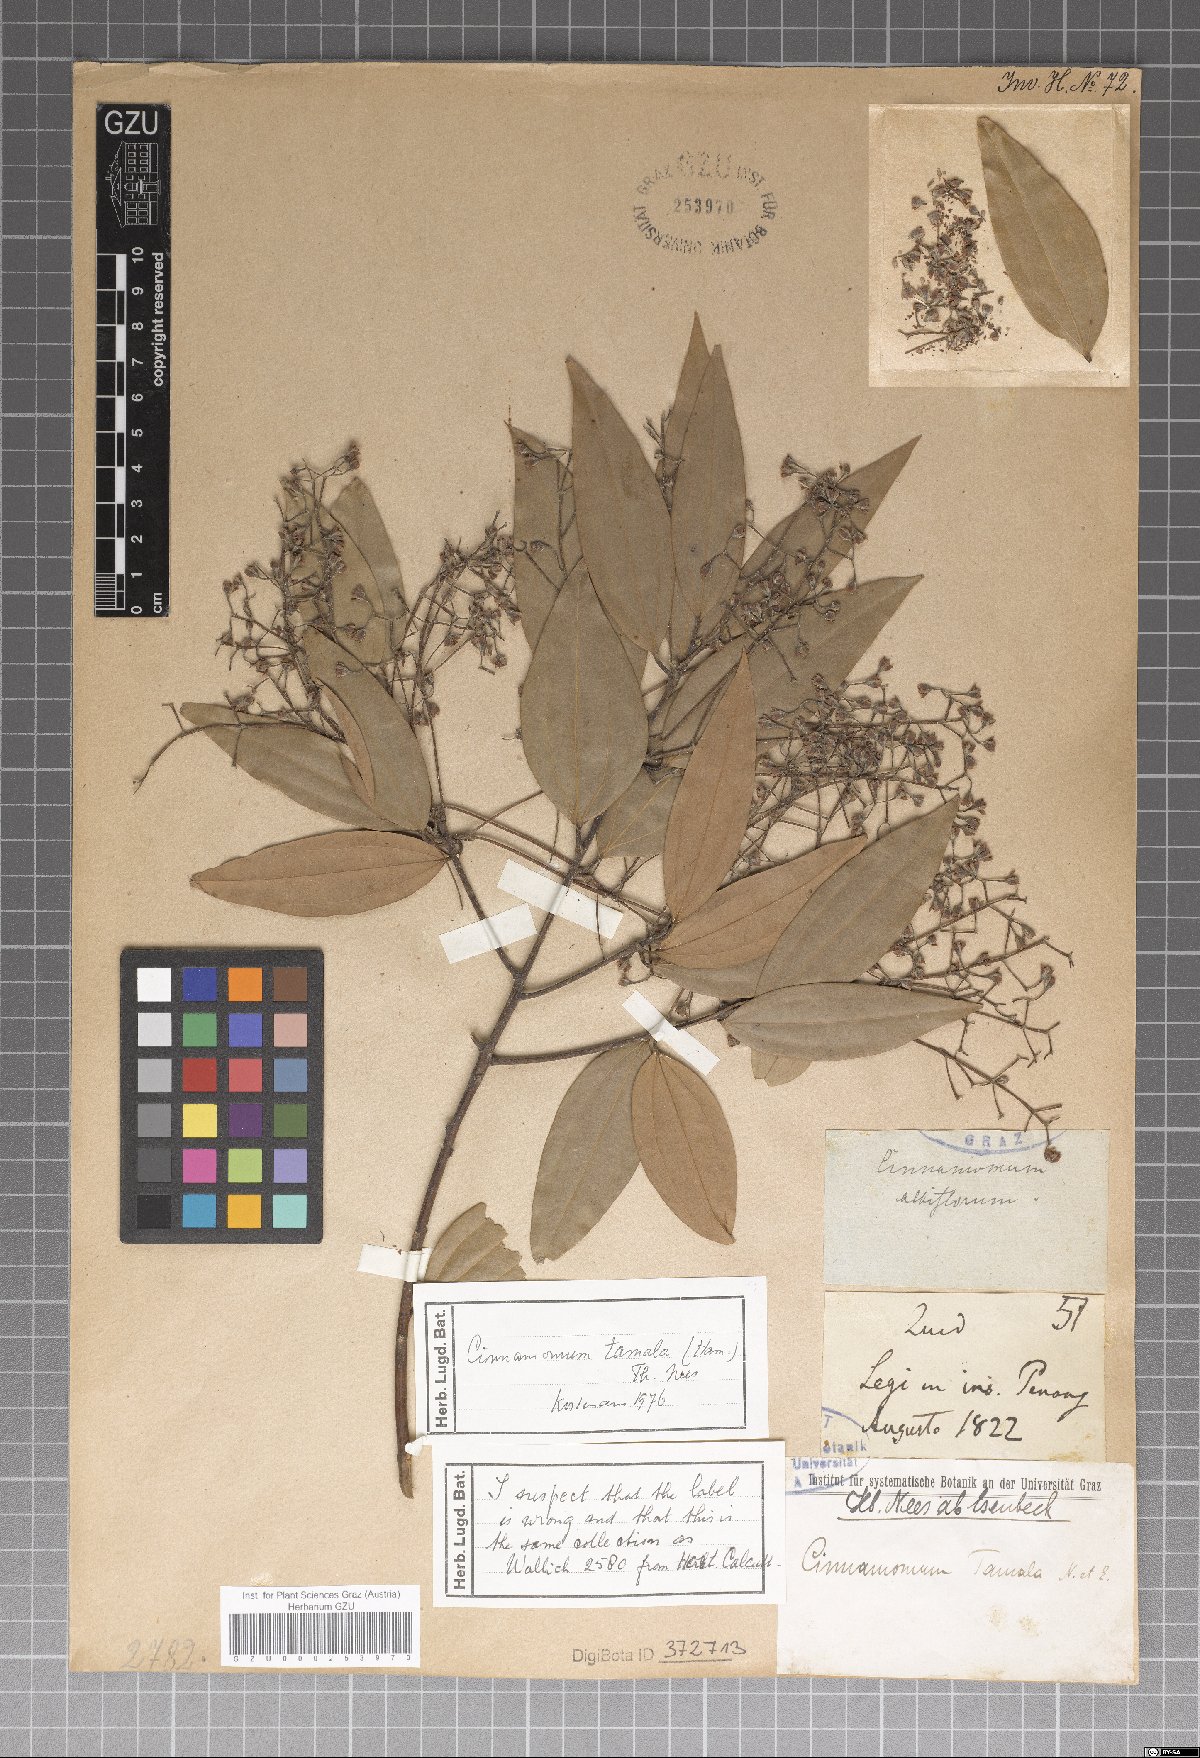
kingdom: Plantae
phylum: Tracheophyta
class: Magnoliopsida
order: Laurales
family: Lauraceae
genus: Cinnamomum
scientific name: Cinnamomum tamala
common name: Indian bay leaves
